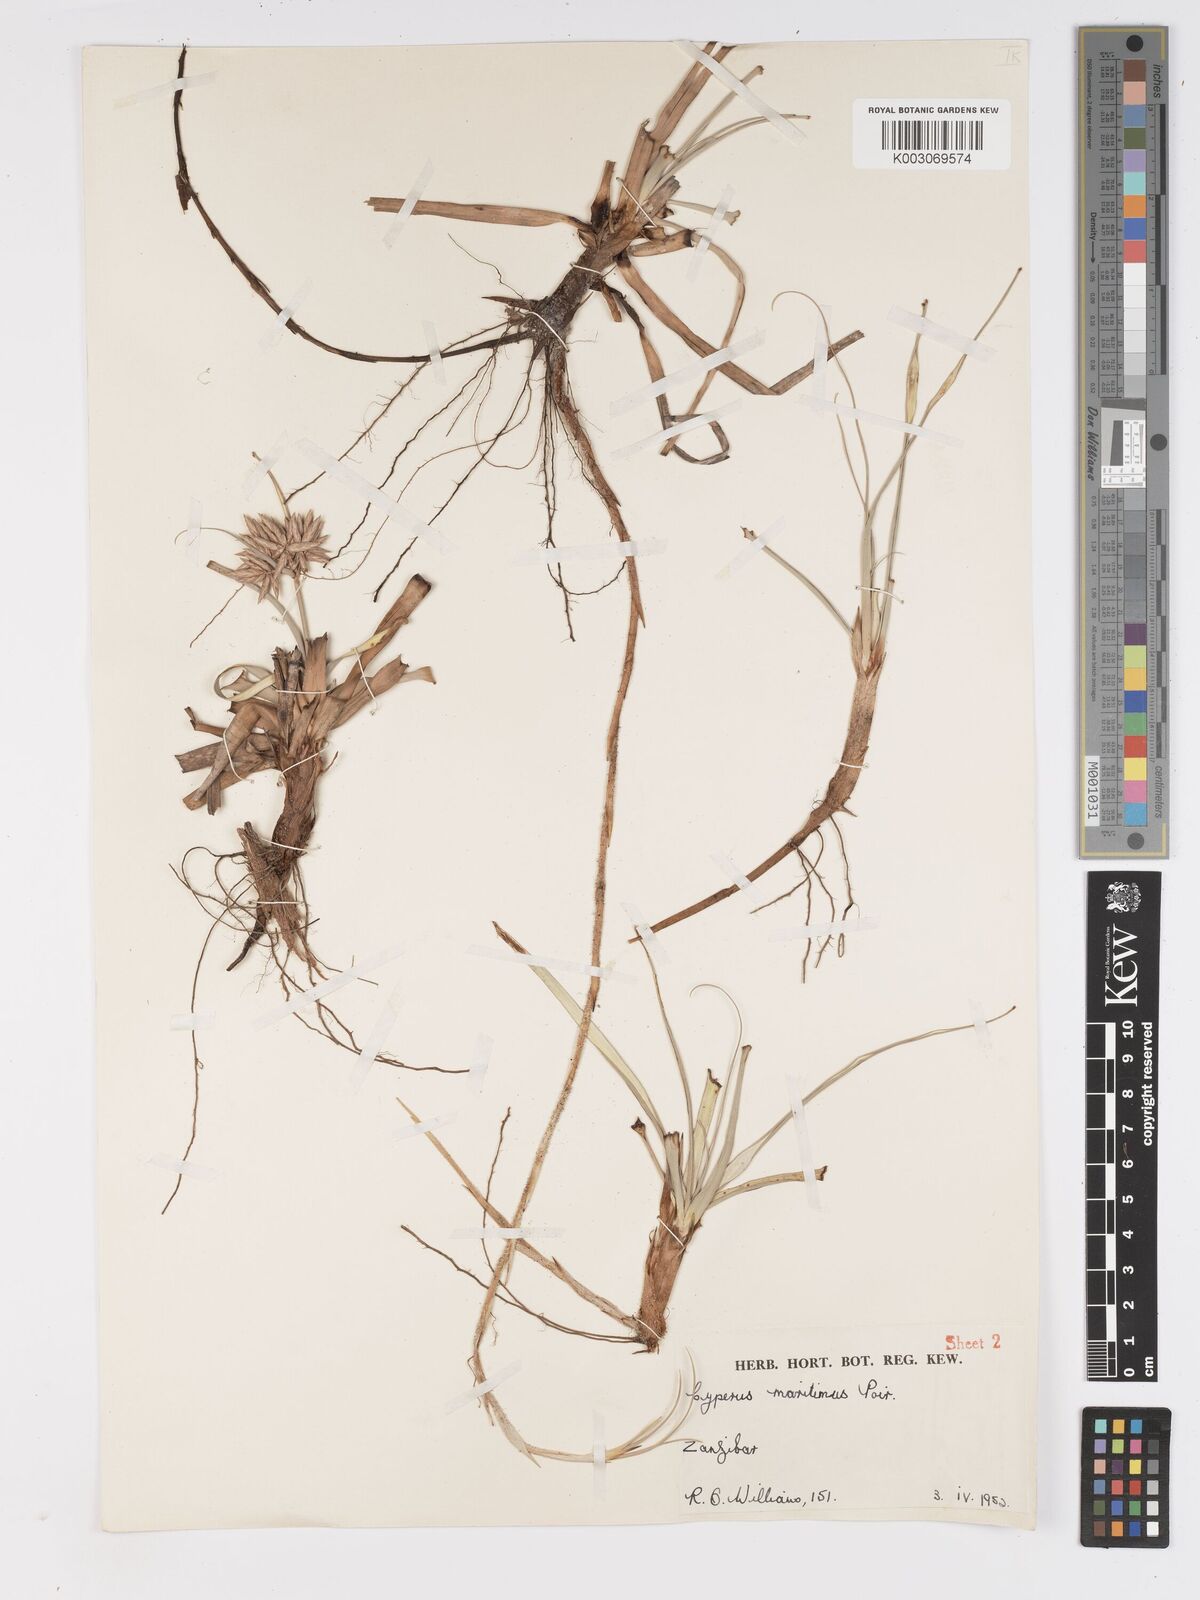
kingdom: Plantae
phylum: Tracheophyta
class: Liliopsida
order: Poales
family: Cyperaceae
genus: Cyperus
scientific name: Cyperus crassipes
